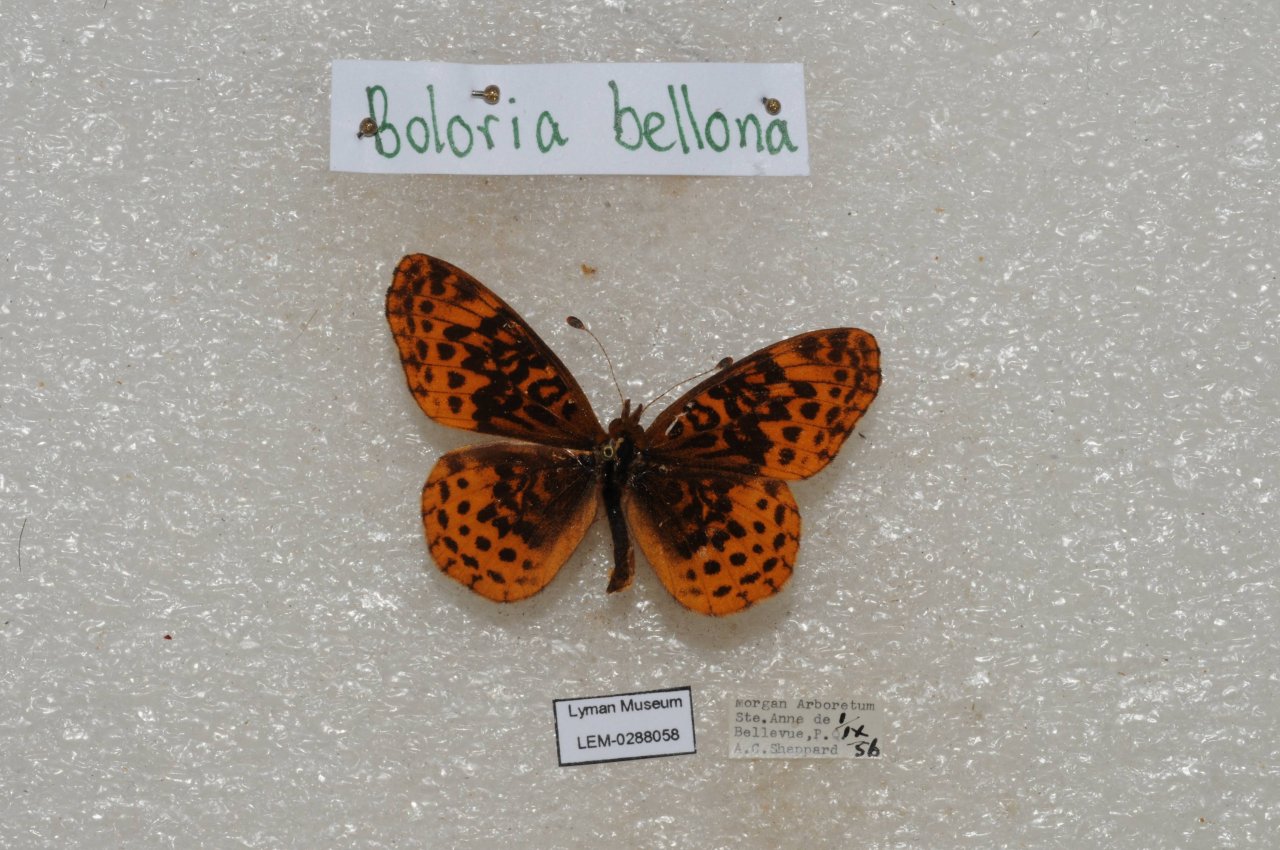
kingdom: Animalia
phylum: Arthropoda
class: Insecta
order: Lepidoptera
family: Nymphalidae
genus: Clossiana
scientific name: Clossiana toddi
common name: Meadow Fritillary
